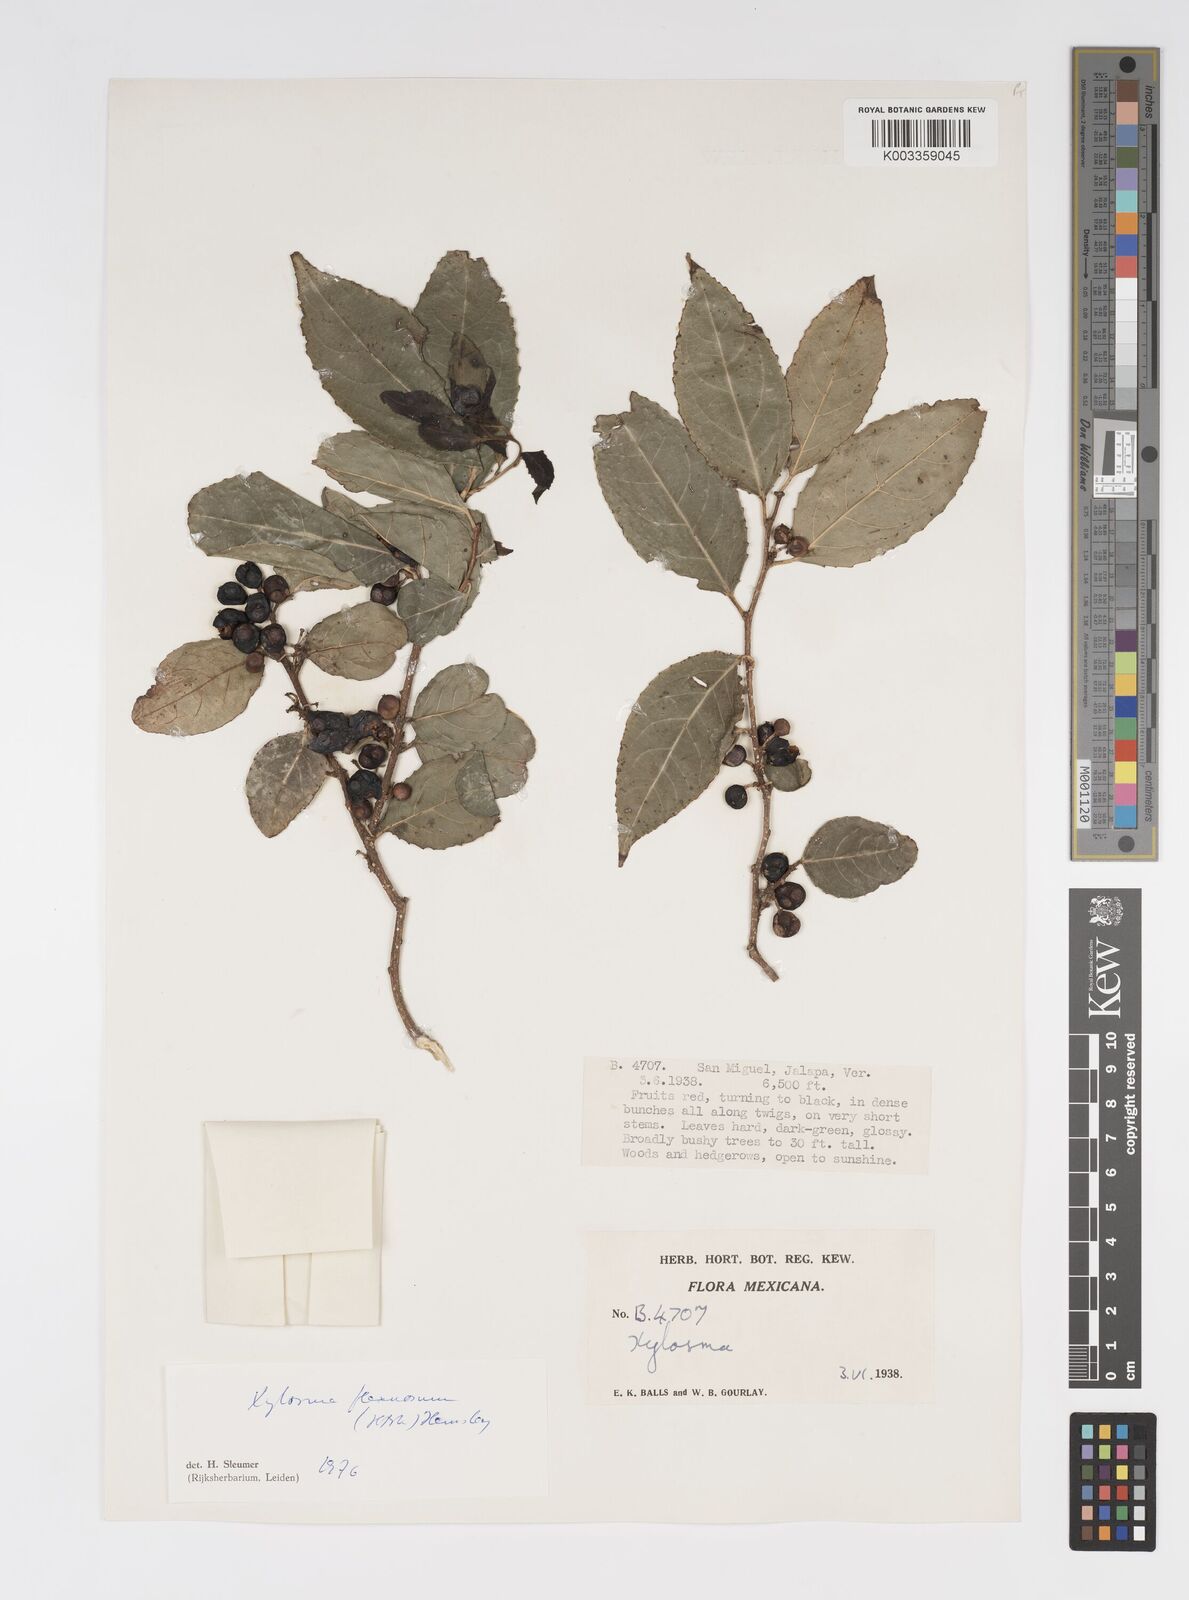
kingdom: Plantae
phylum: Tracheophyta
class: Magnoliopsida
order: Malpighiales
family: Salicaceae
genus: Xylosma
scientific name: Xylosma flexuosa
